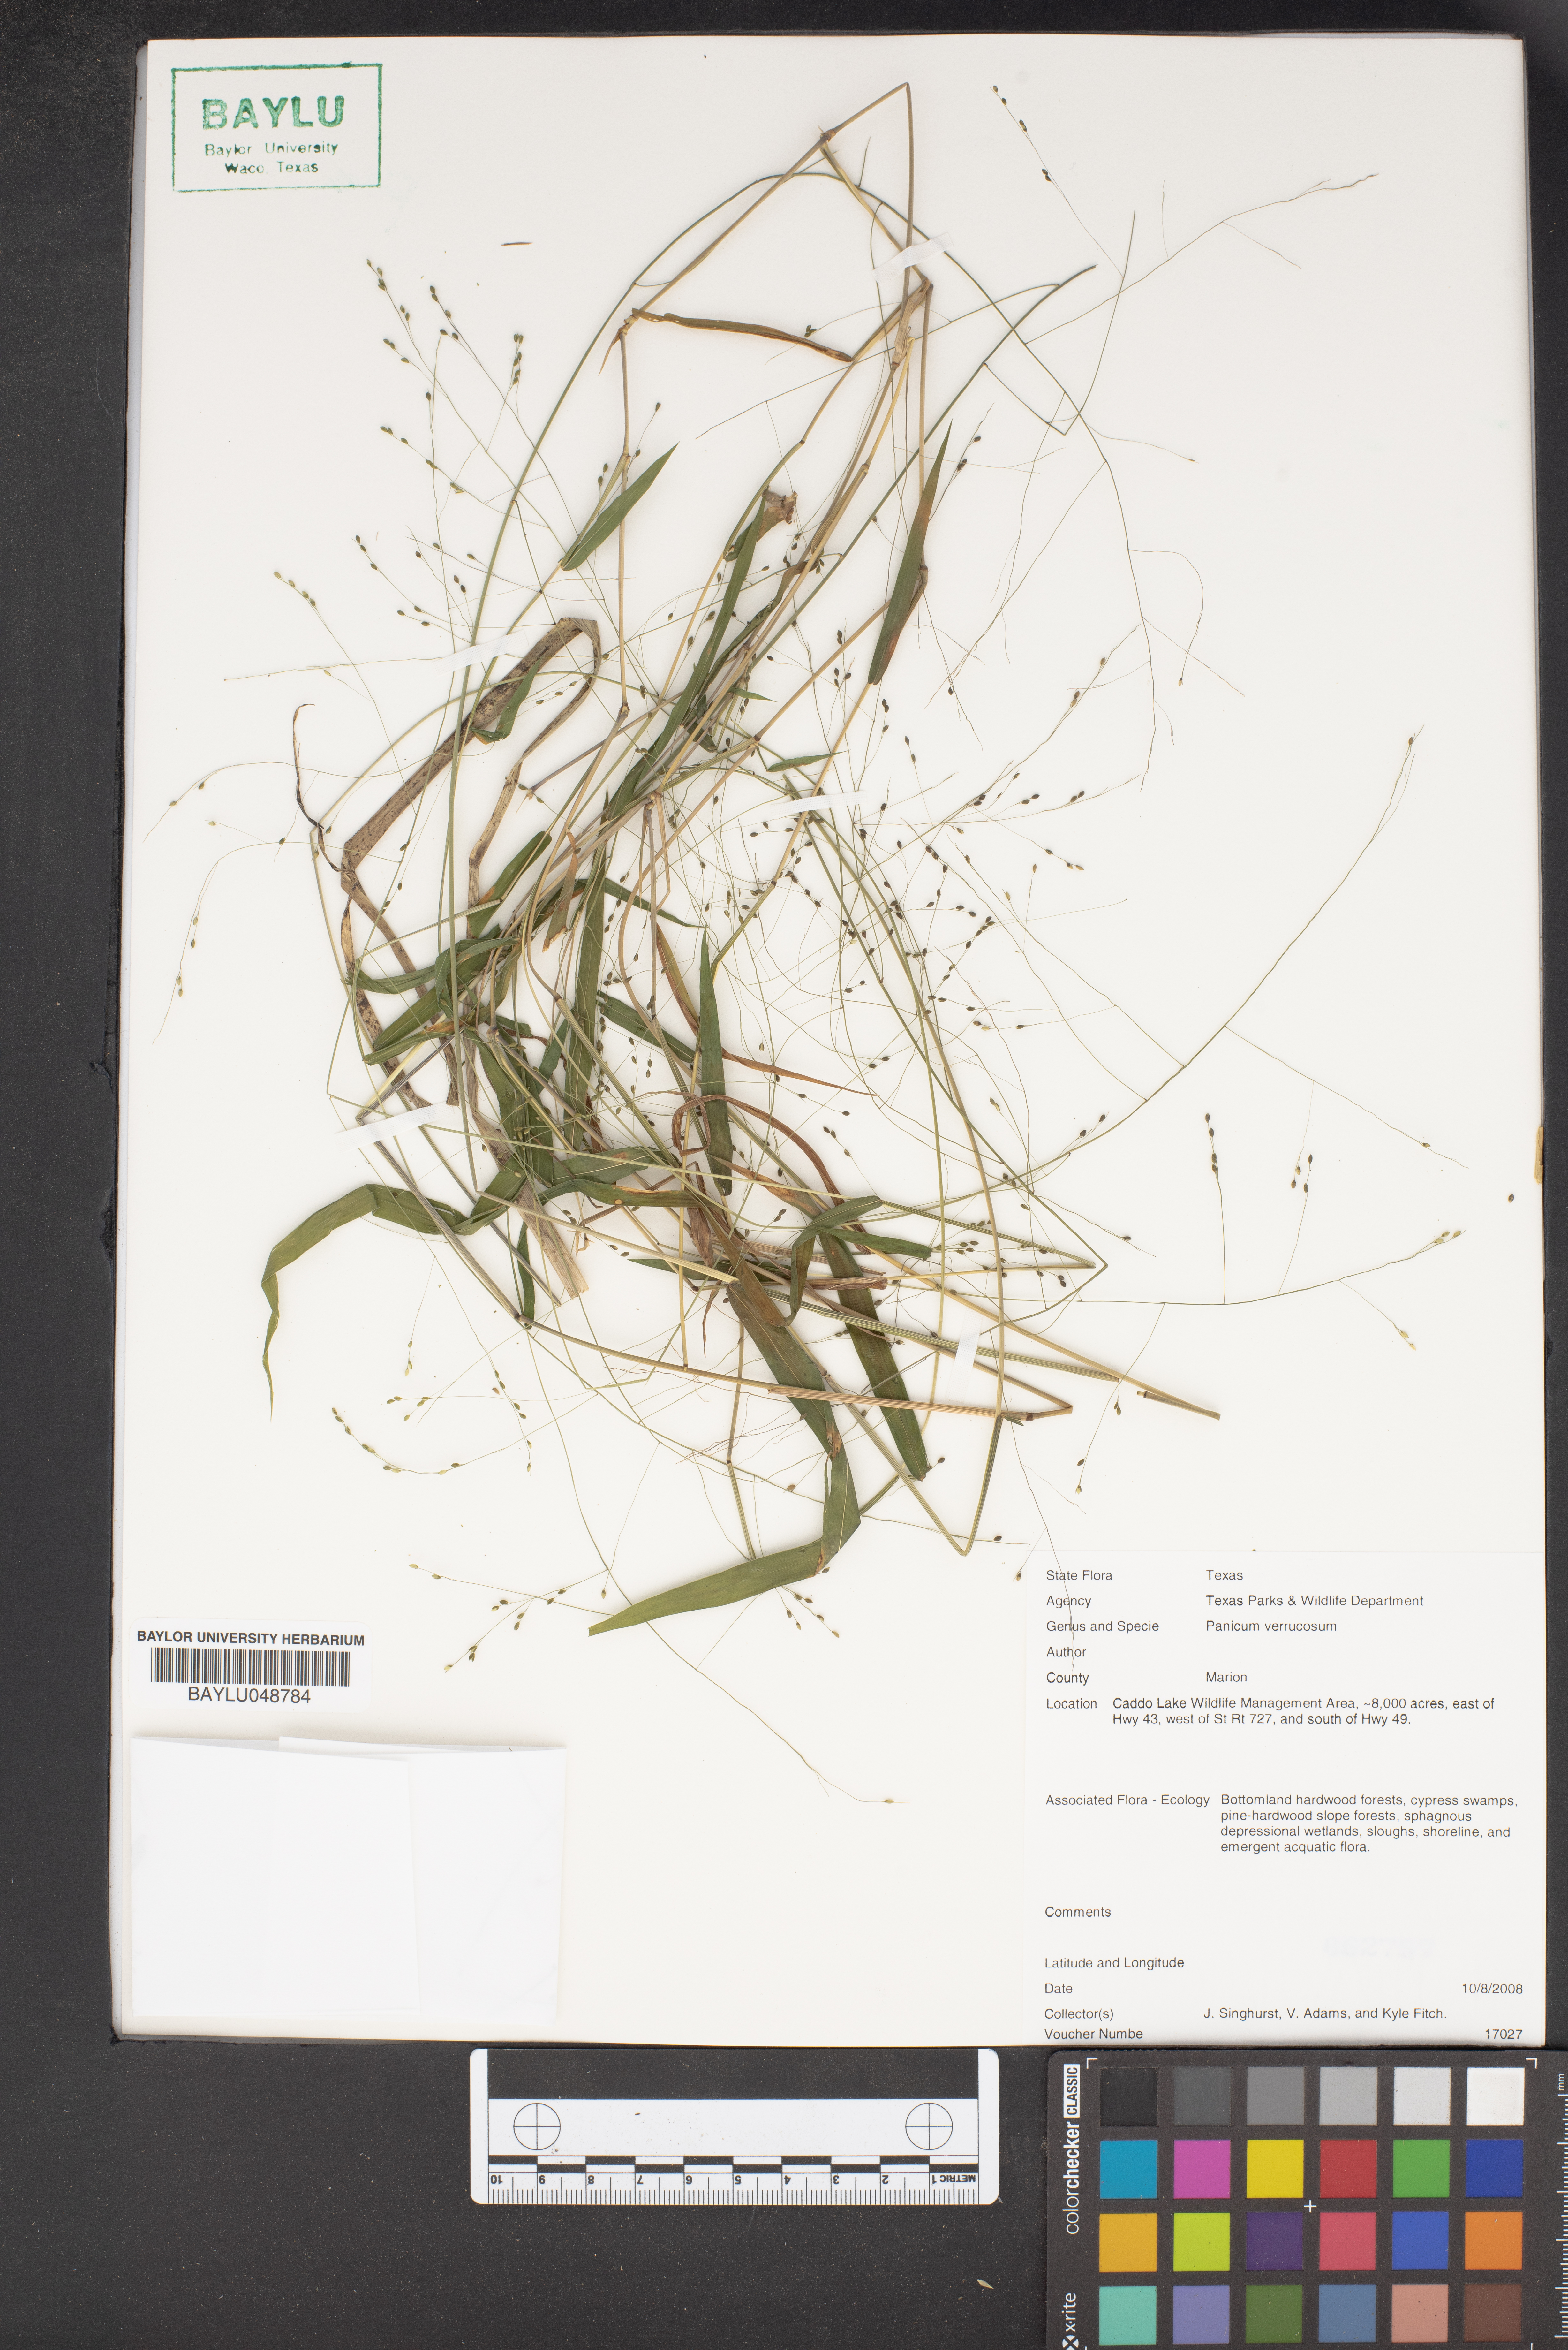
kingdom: Plantae
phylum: Tracheophyta
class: Liliopsida
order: Poales
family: Poaceae
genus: Kellochloa
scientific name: Kellochloa verrucosa
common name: Warty panic grass
